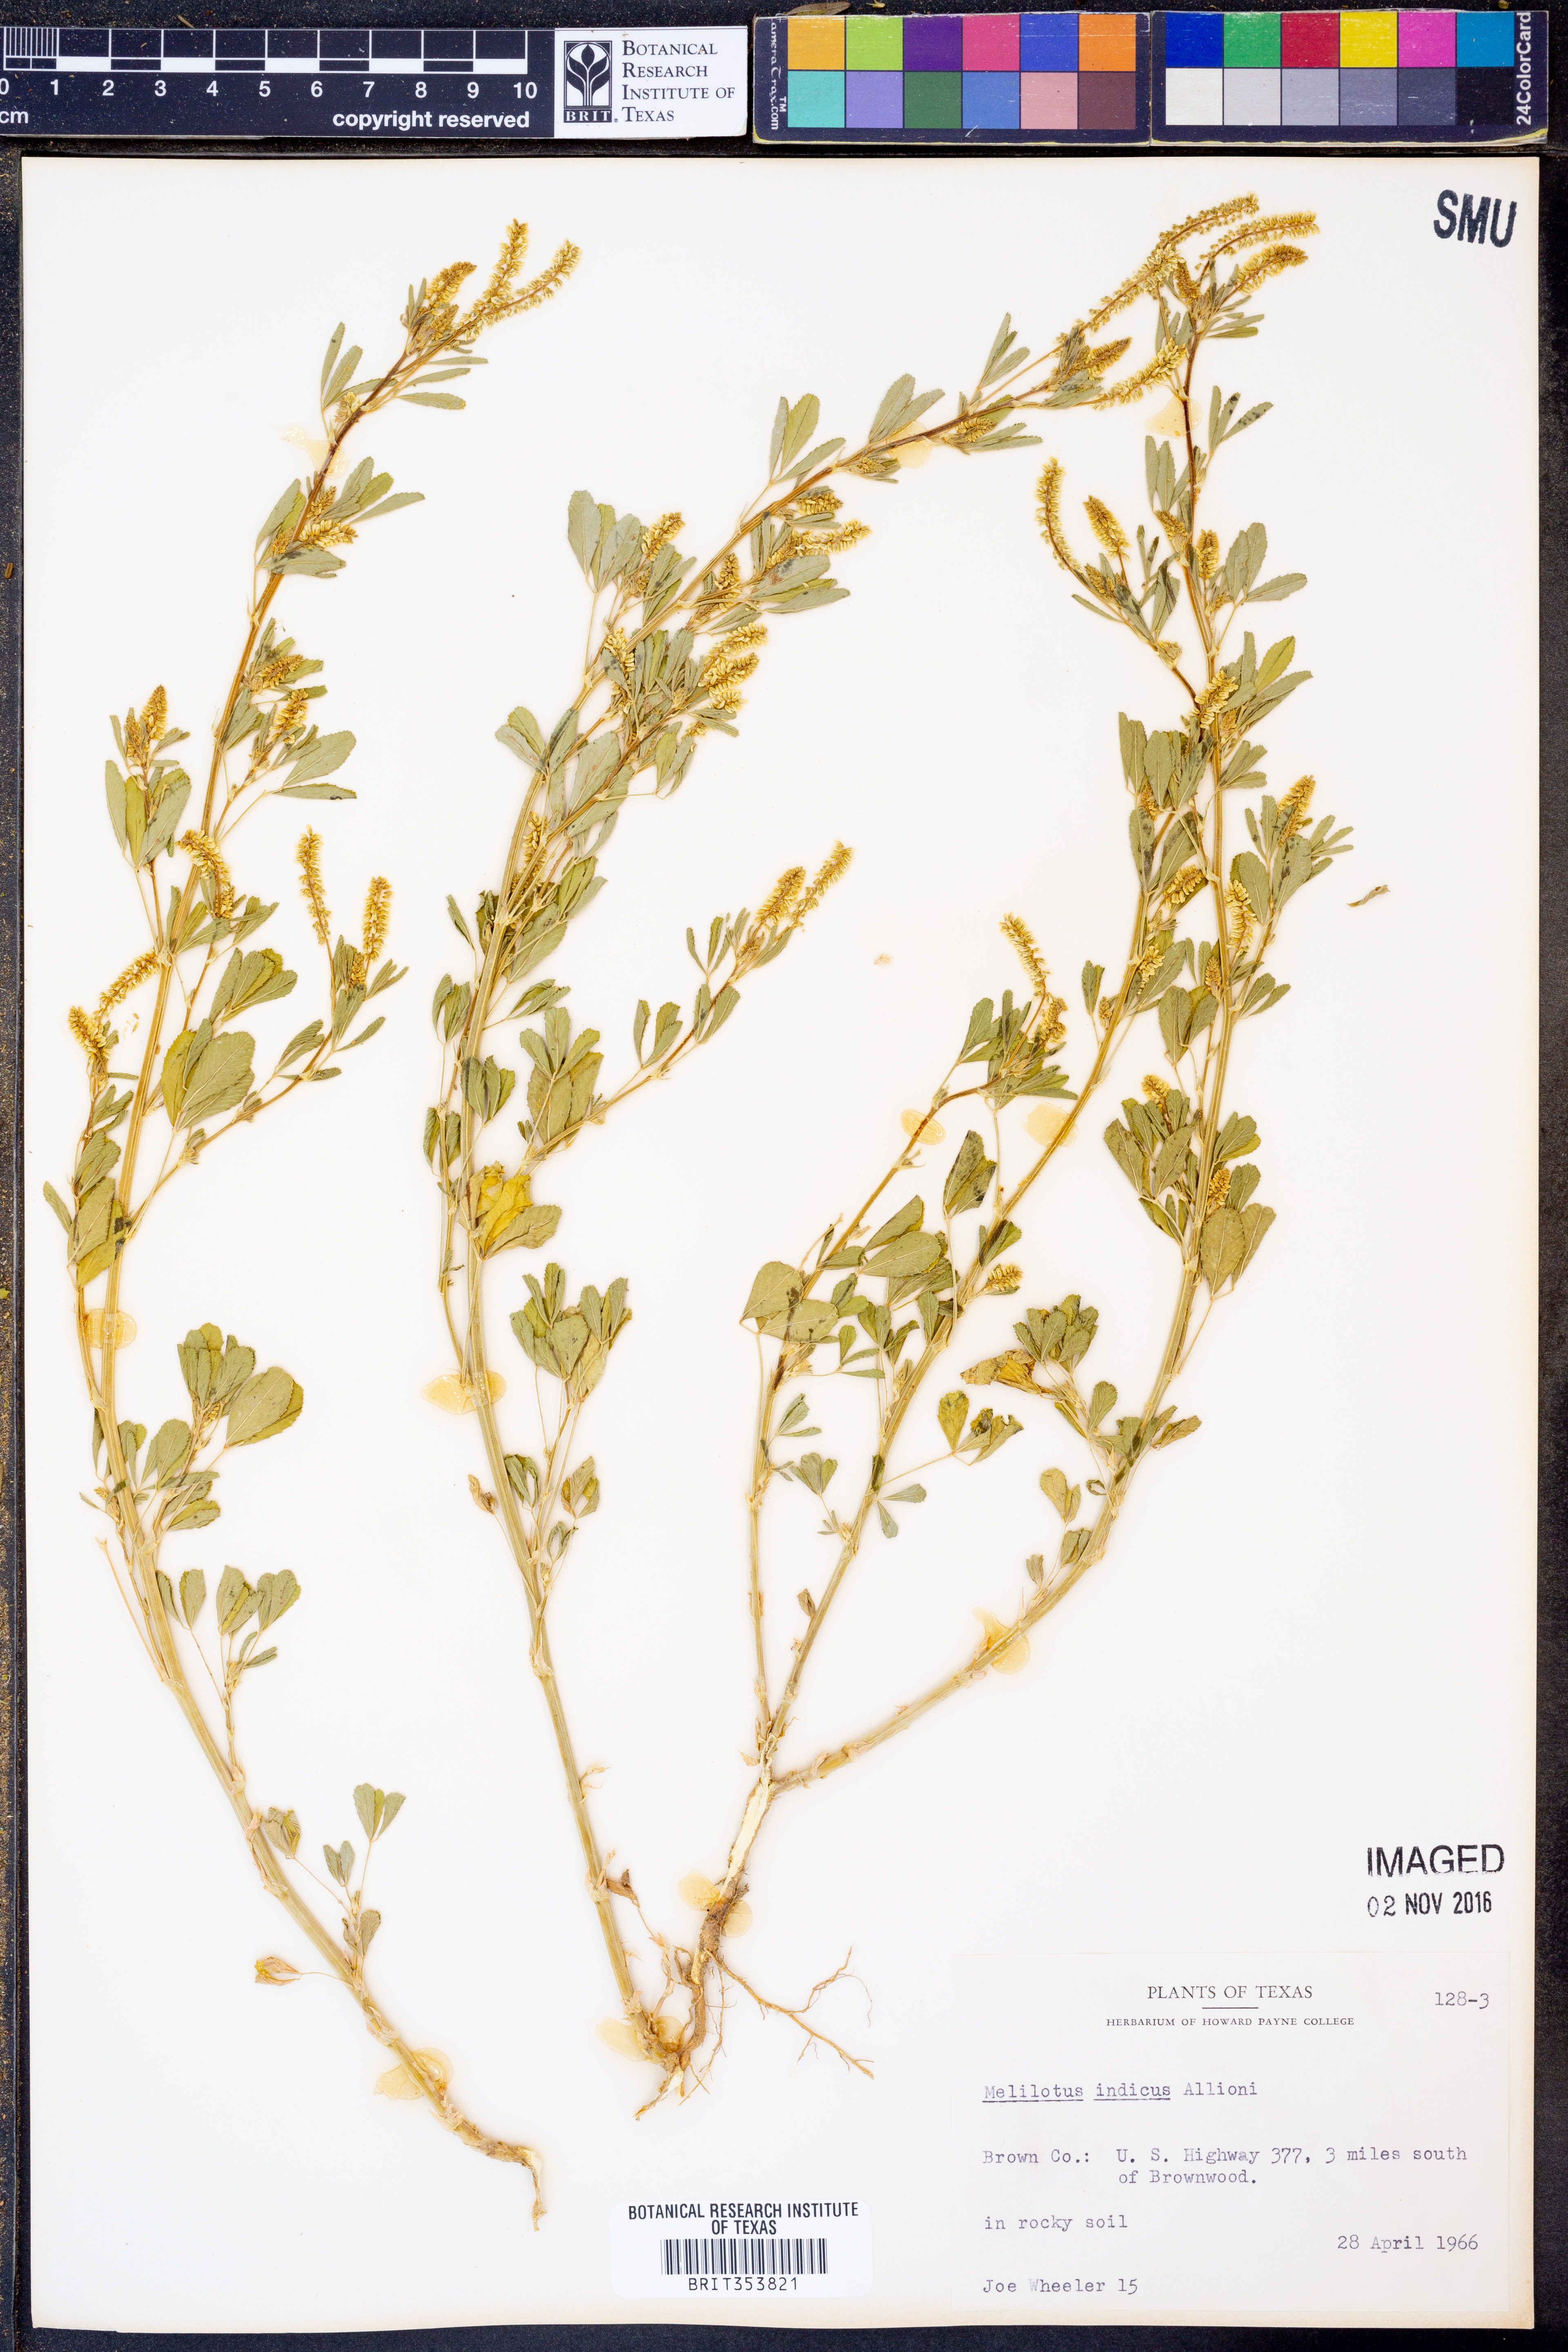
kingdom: Plantae
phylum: Tracheophyta
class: Magnoliopsida
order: Fabales
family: Fabaceae
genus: Melilotus
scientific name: Melilotus indicus
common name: Small melilot
